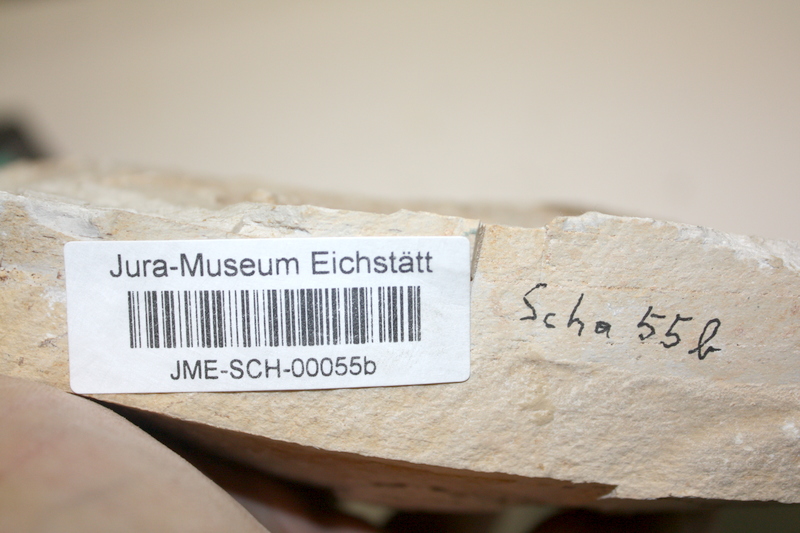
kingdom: Animalia
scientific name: Animalia
